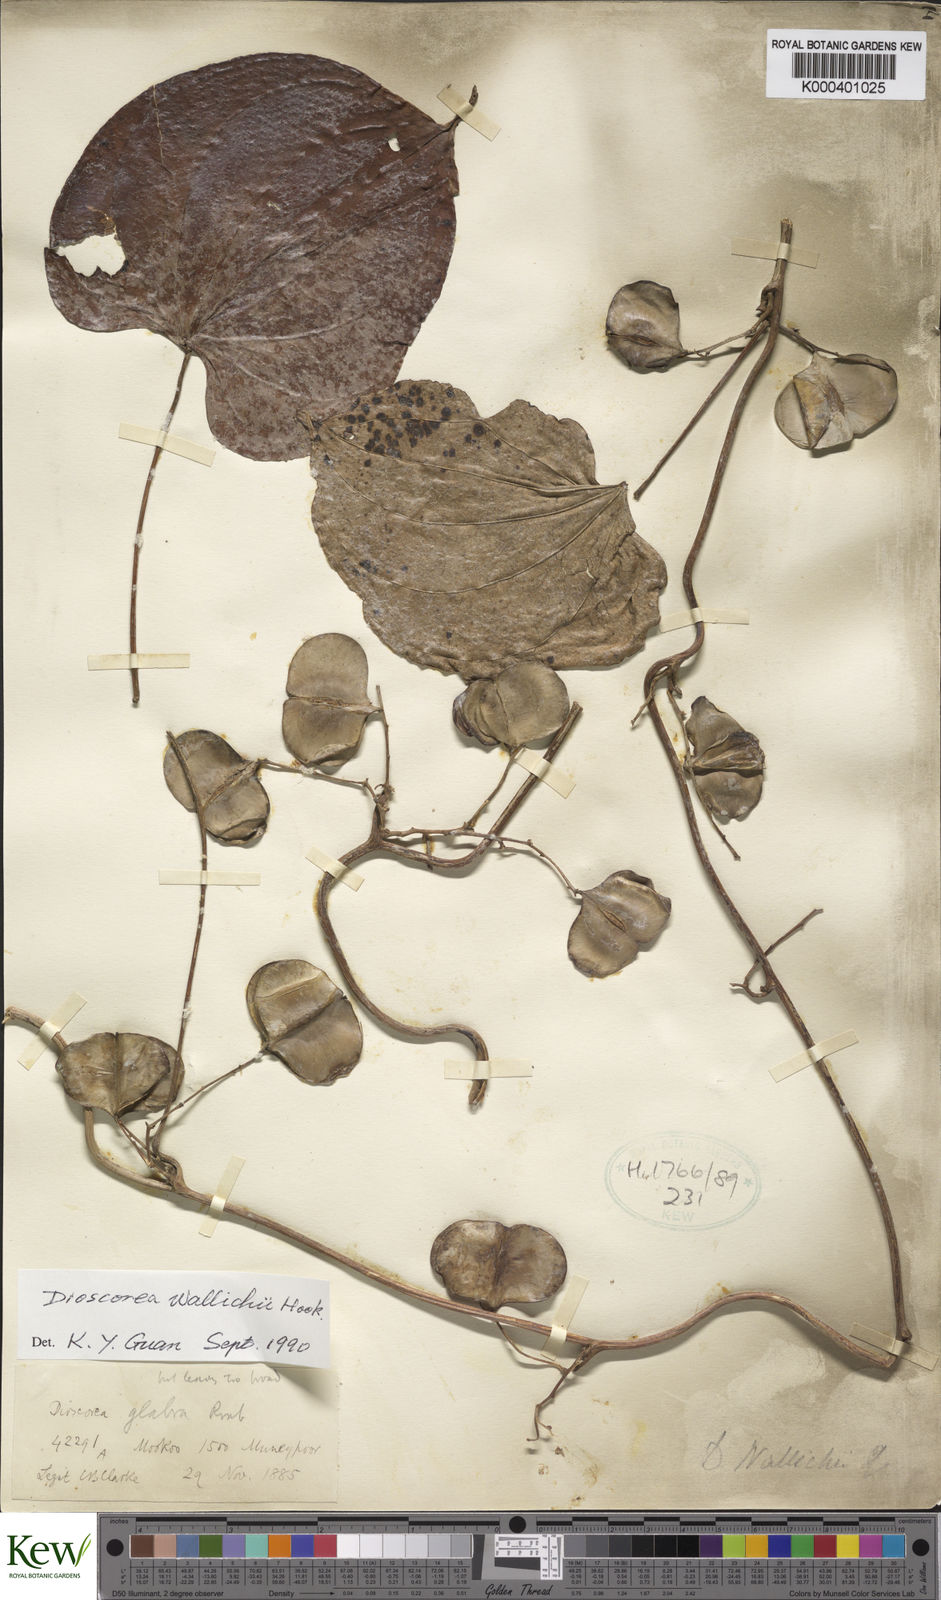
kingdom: Plantae
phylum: Tracheophyta
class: Liliopsida
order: Dioscoreales
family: Dioscoreaceae
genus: Dioscorea
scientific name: Dioscorea wallichii
